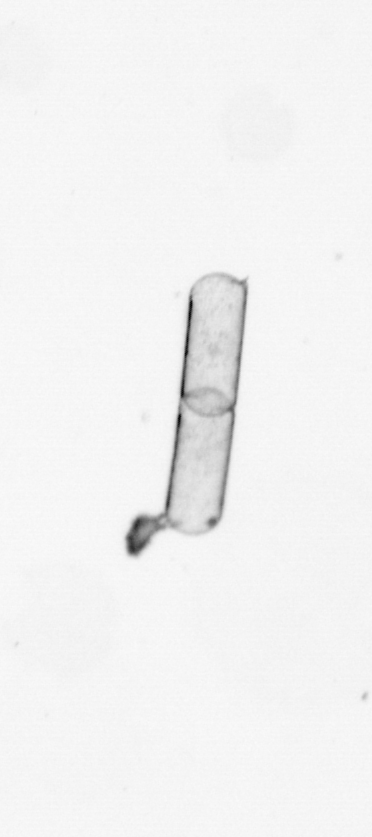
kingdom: Chromista
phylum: Ochrophyta
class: Bacillariophyceae
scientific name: Bacillariophyceae
